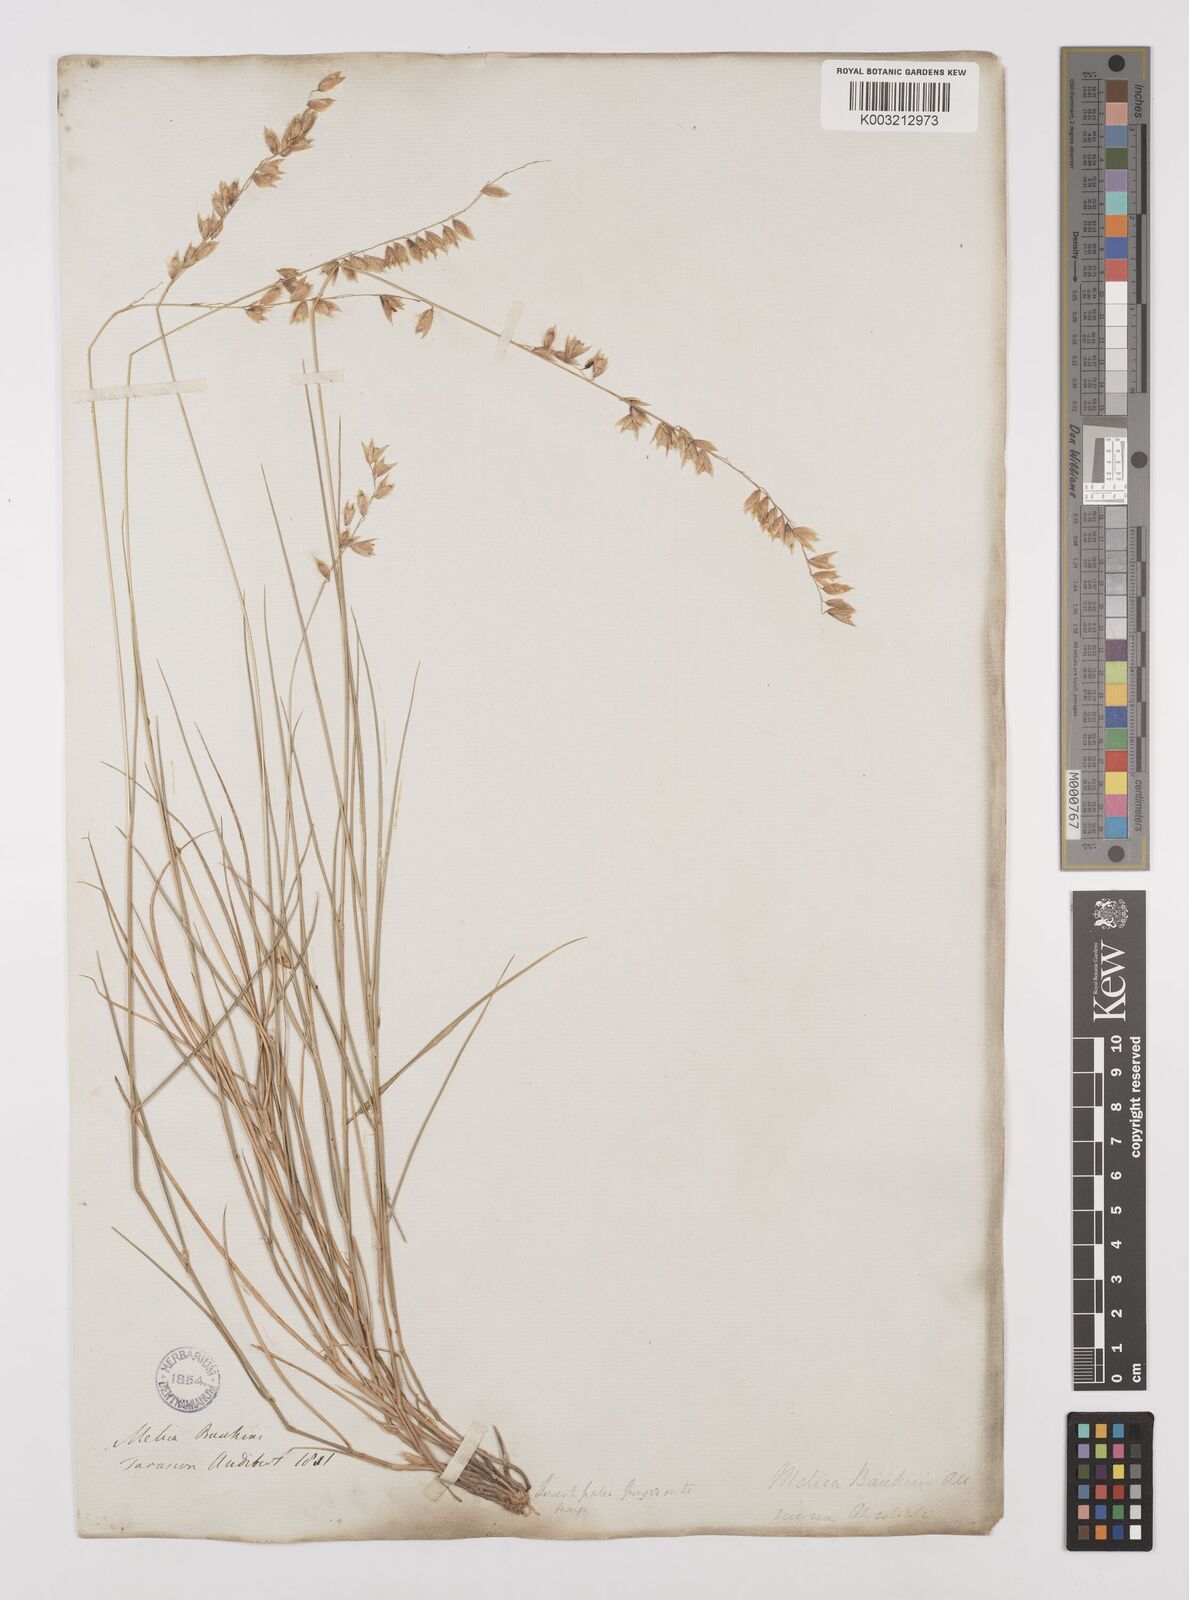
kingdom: Plantae
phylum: Tracheophyta
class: Liliopsida
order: Poales
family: Poaceae
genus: Melica
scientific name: Melica amethystina
